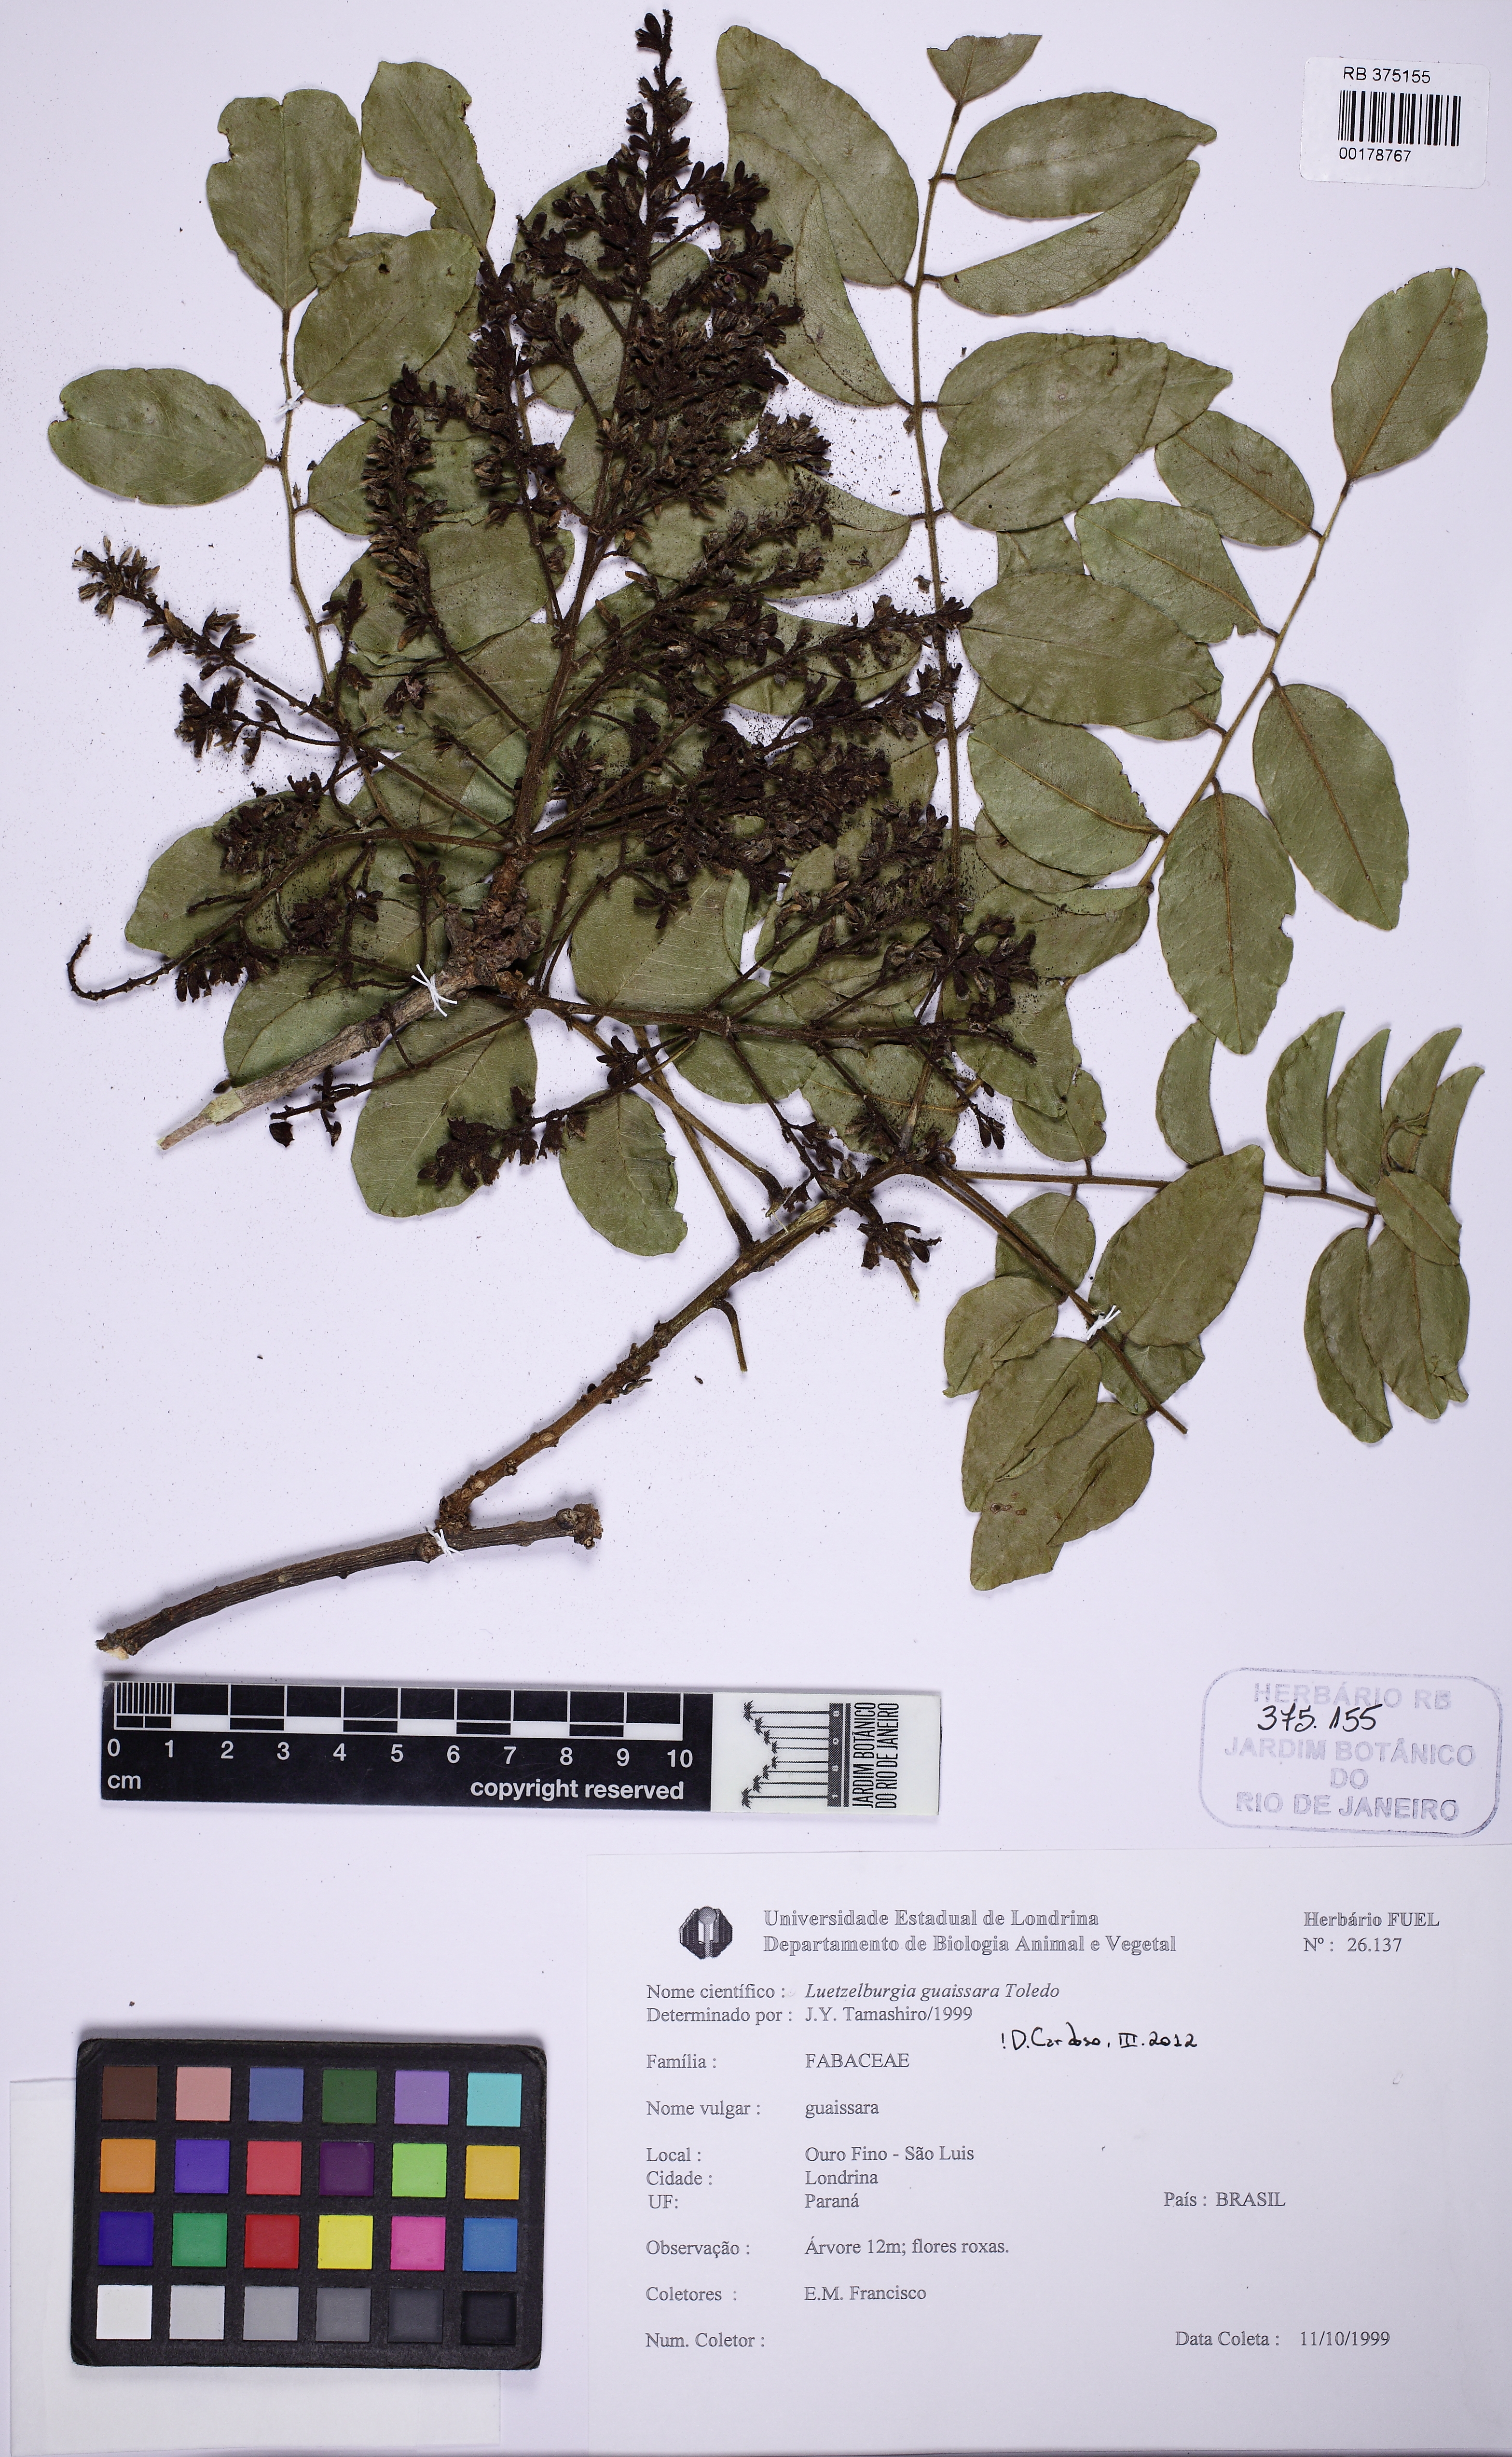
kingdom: Plantae
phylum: Tracheophyta
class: Magnoliopsida
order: Fabales
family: Fabaceae
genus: Luetzelburgia
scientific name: Luetzelburgia guaissara
